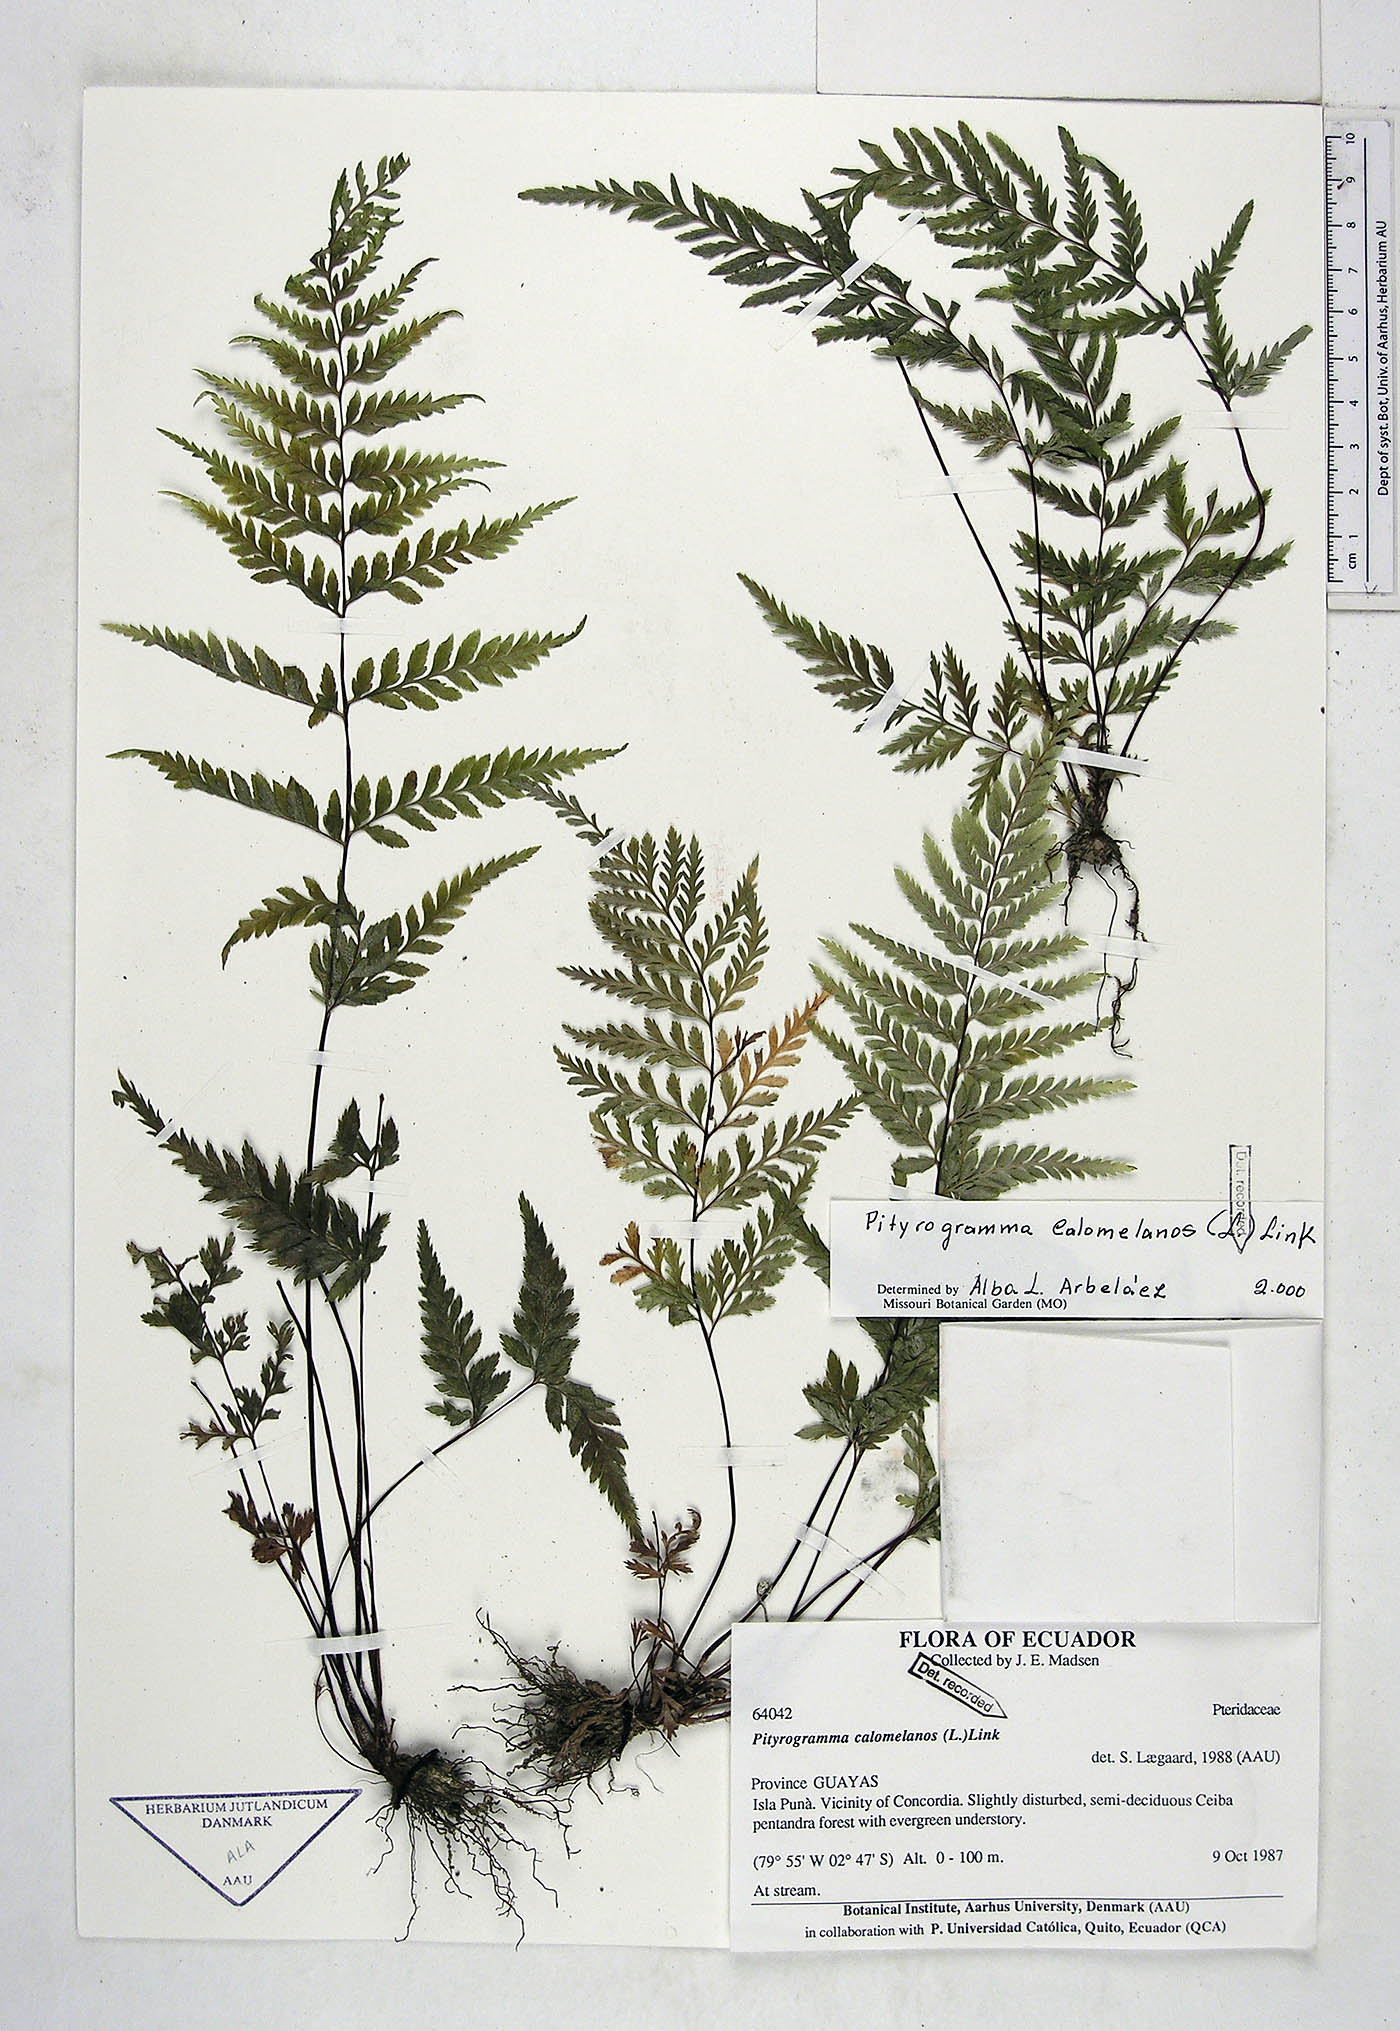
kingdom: Plantae
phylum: Tracheophyta
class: Polypodiopsida
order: Polypodiales
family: Pteridaceae
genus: Pityrogramma
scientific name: Pityrogramma calomelanos
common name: Dixie silverback fern
